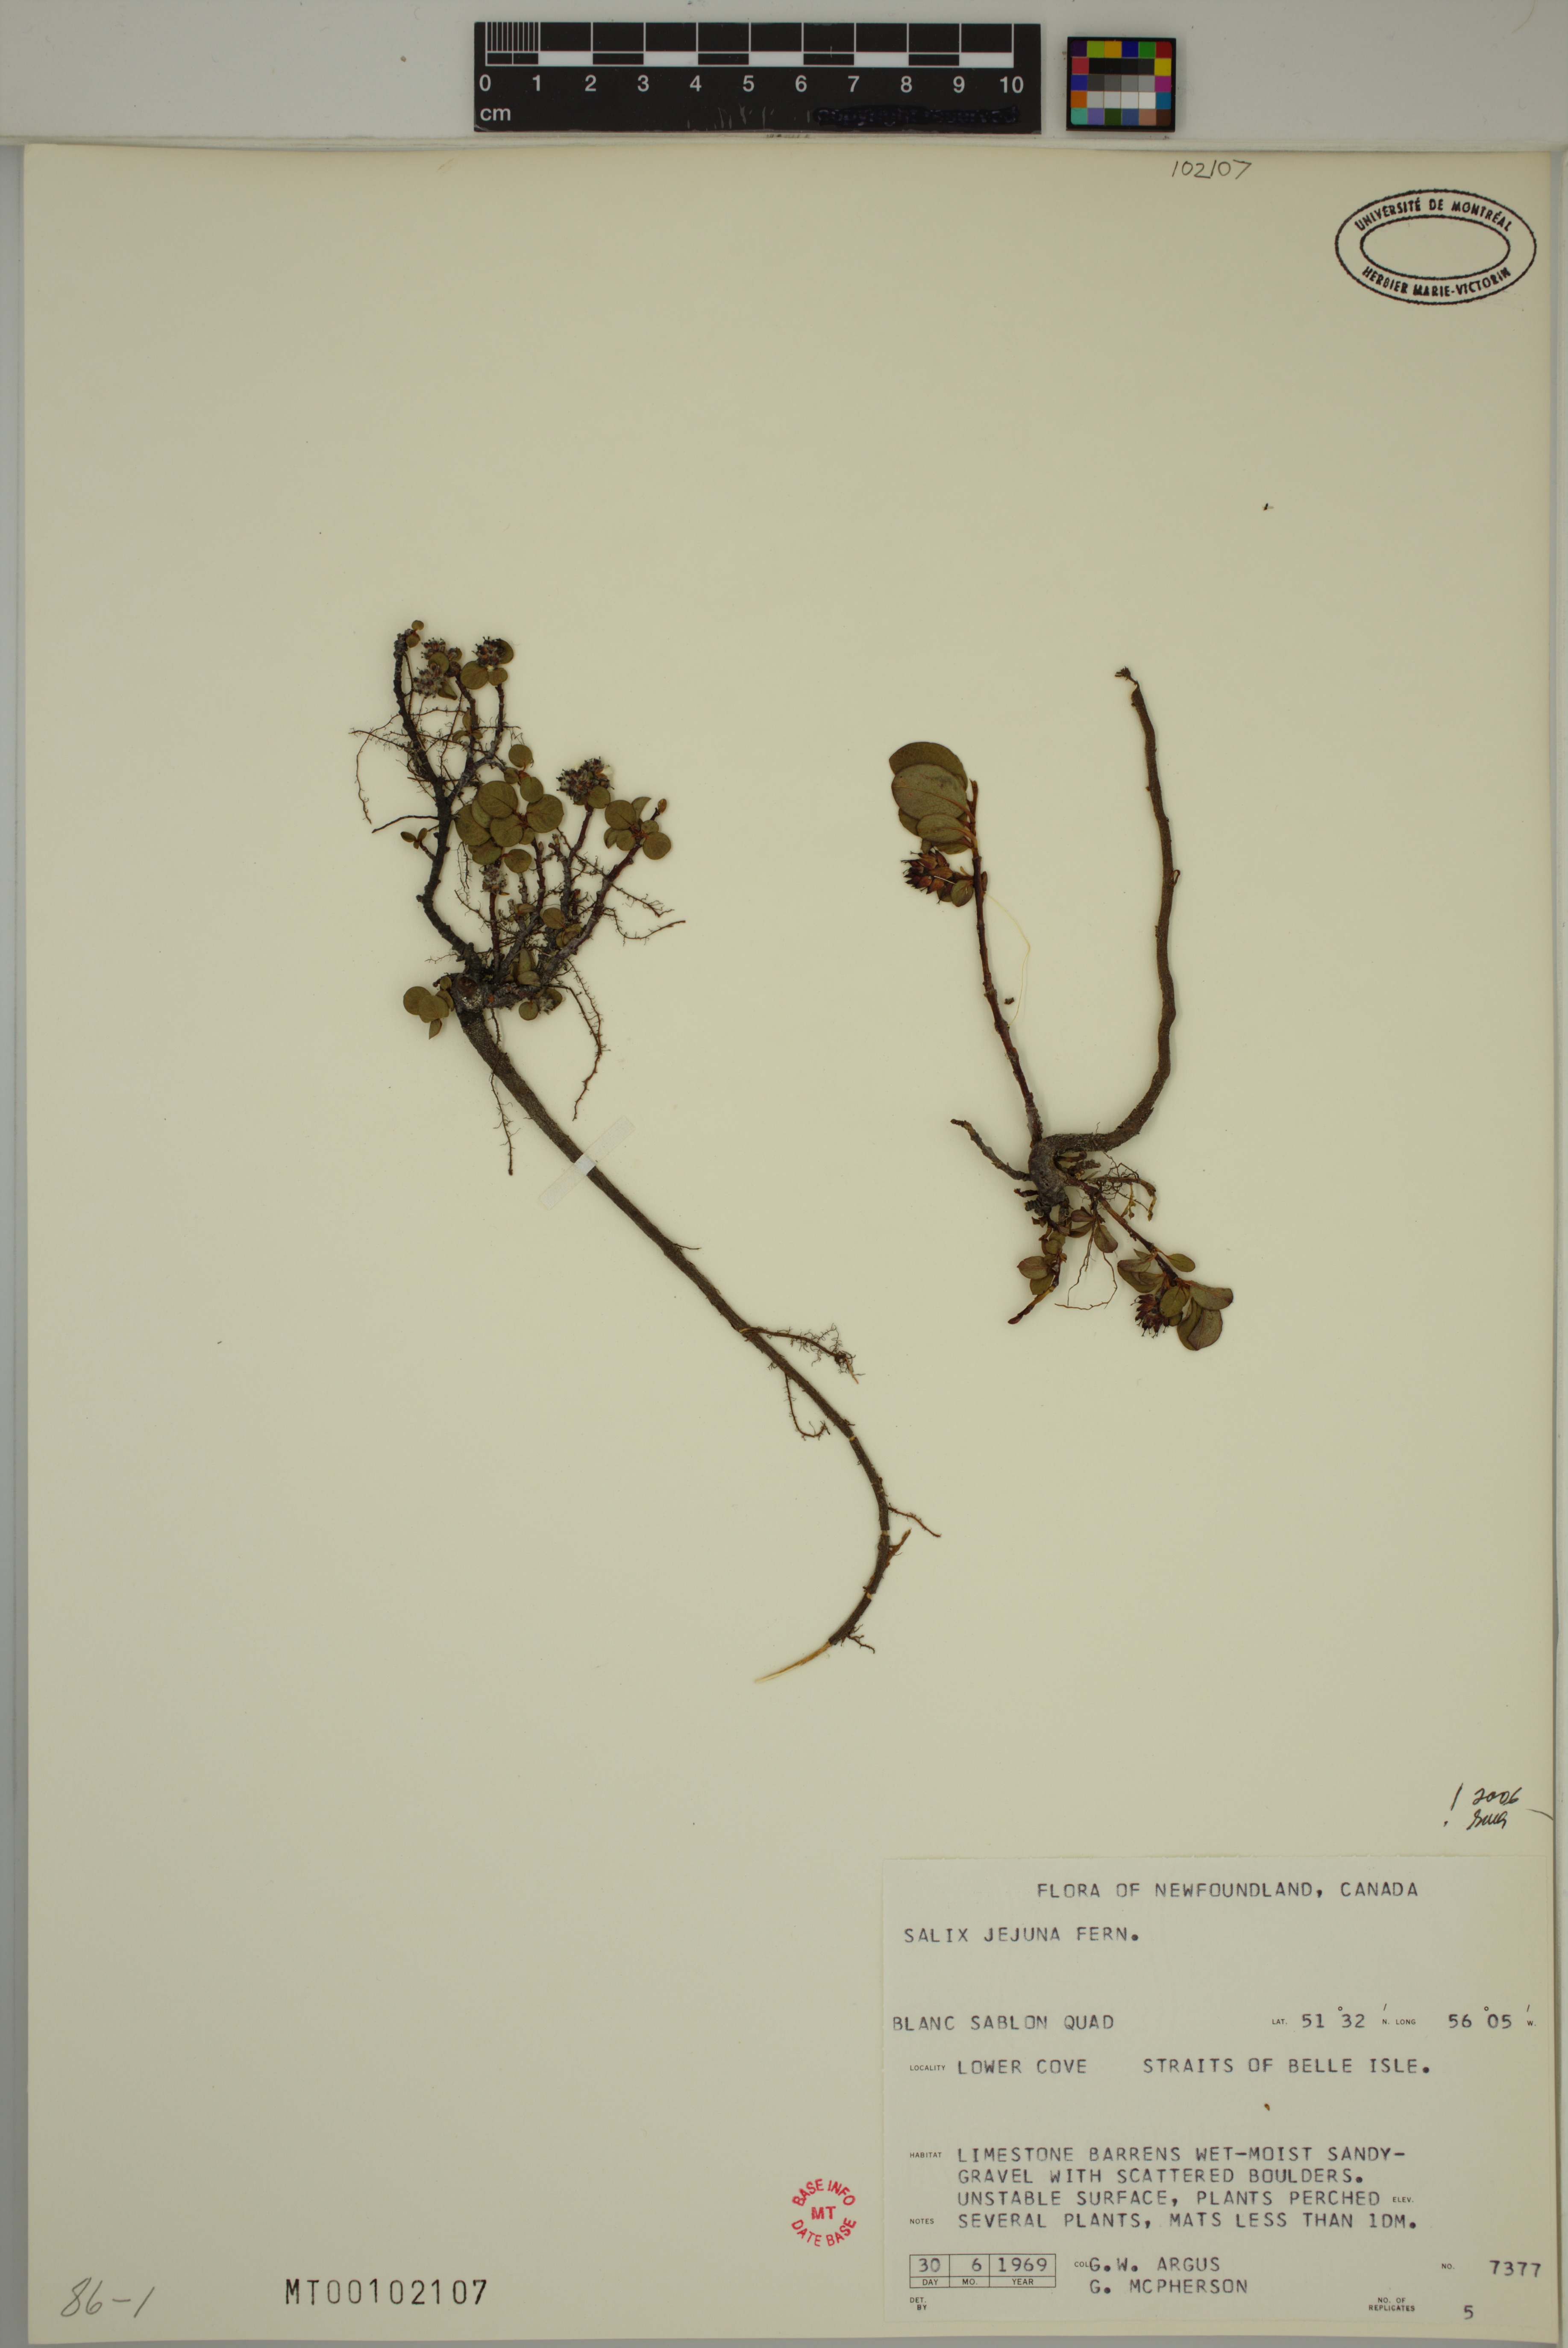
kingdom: Plantae
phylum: Tracheophyta
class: Magnoliopsida
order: Malpighiales
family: Salicaceae
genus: Salix
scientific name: Salix jejuna
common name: Belle isle dwarf willow
